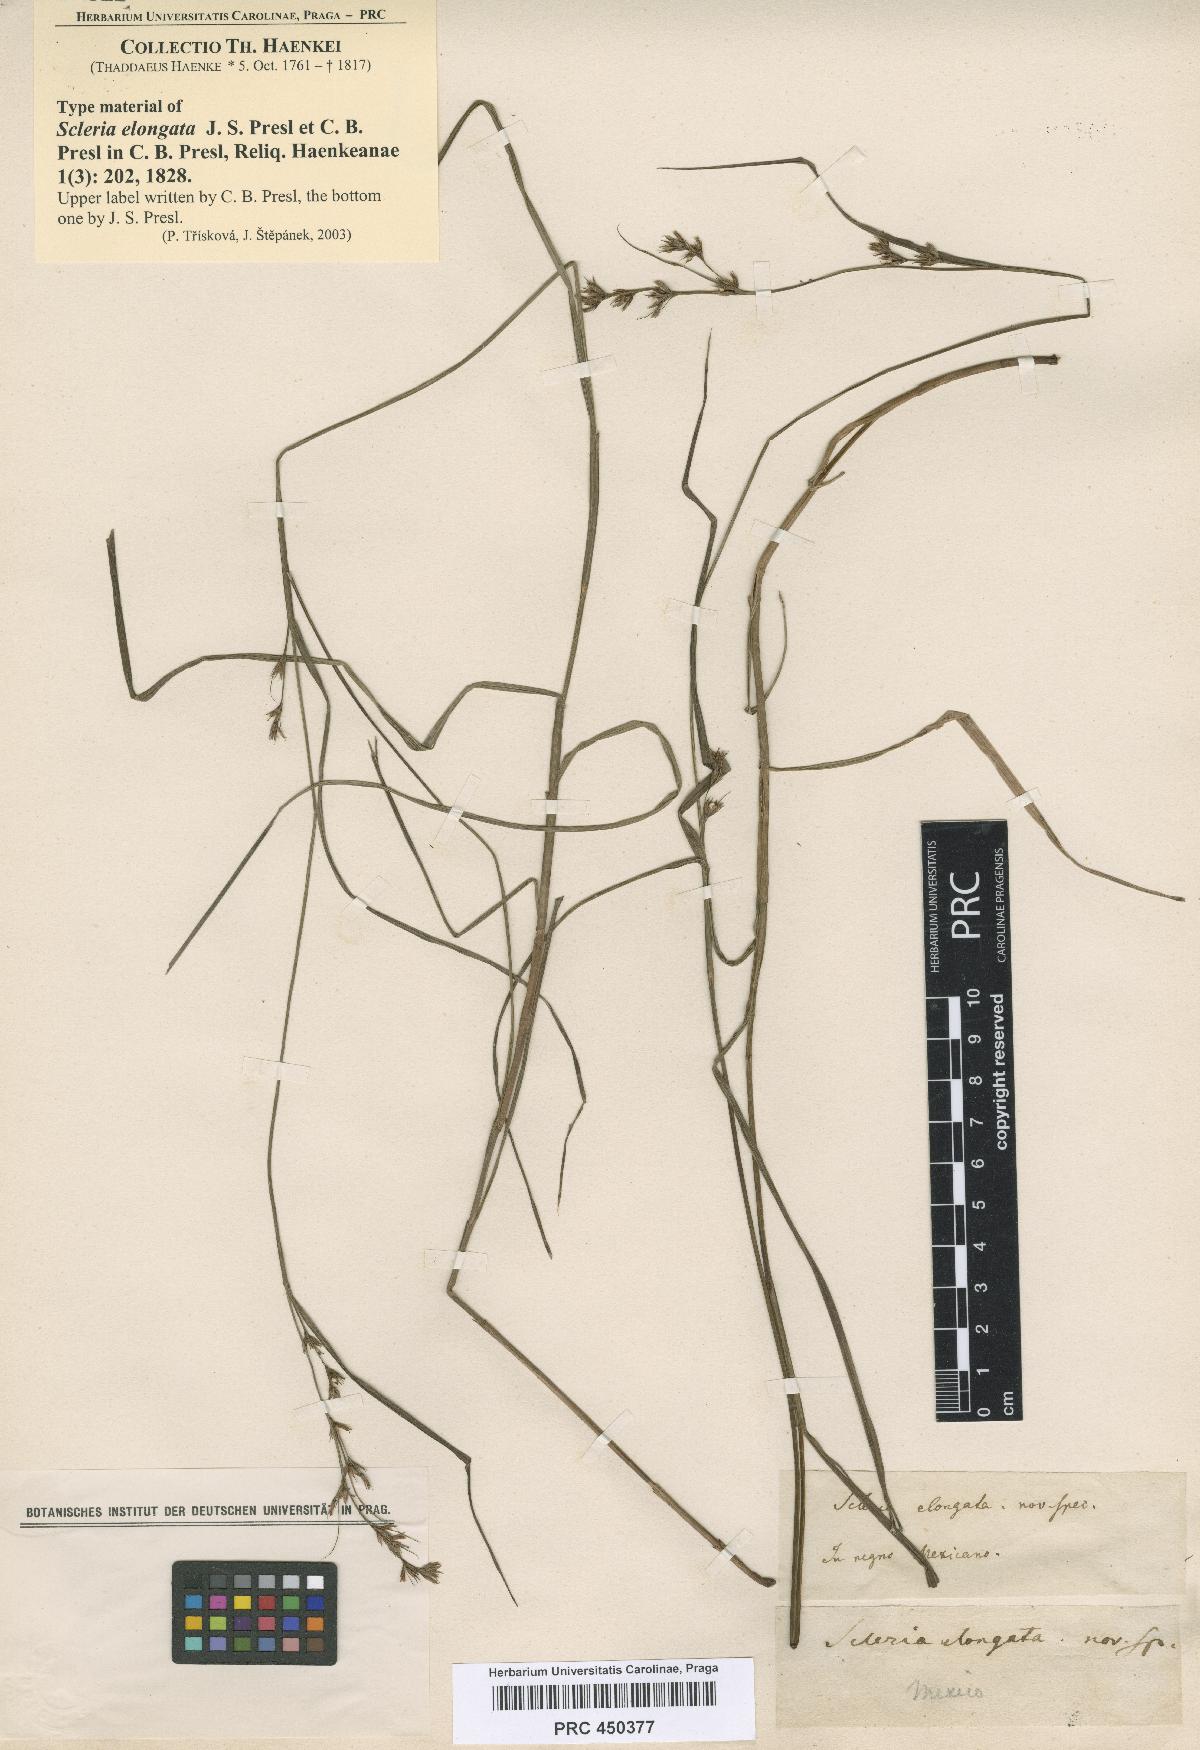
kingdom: Plantae
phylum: Tracheophyta
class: Liliopsida
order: Poales
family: Cyperaceae
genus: Scleria
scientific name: Scleria lithosperma
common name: Florida keys nut-rush
